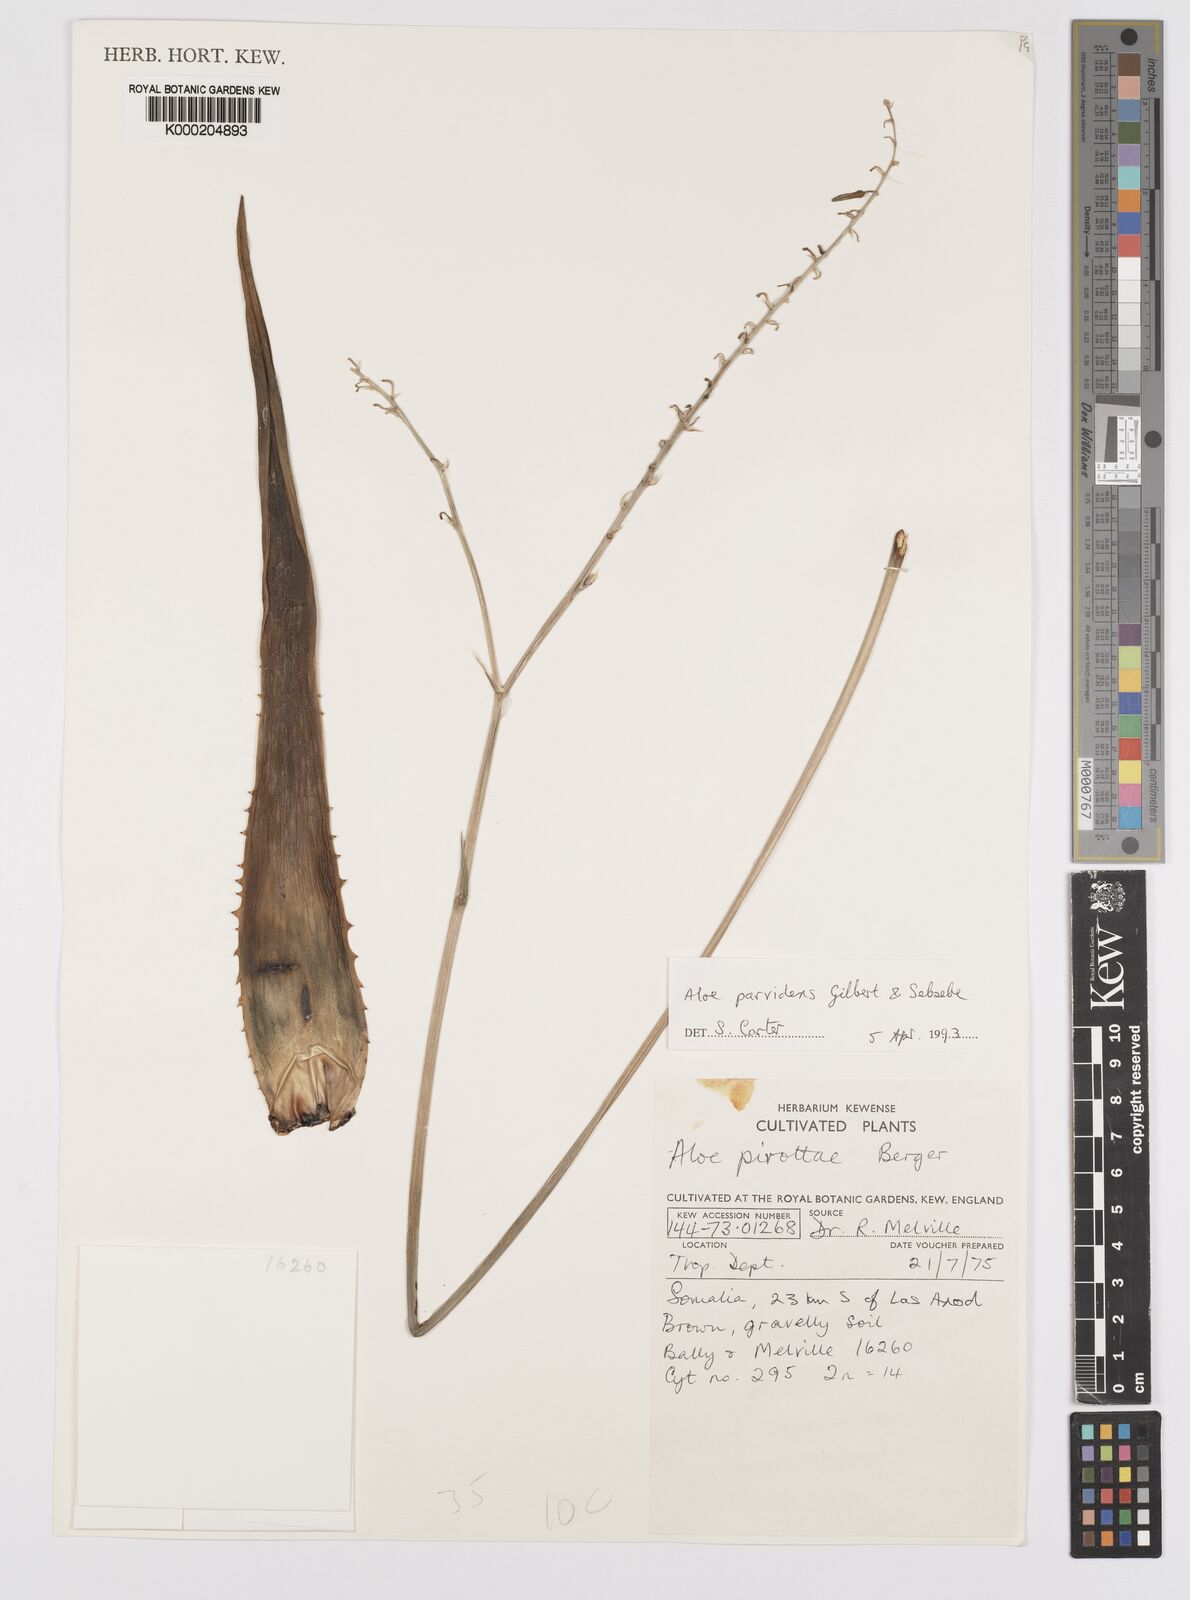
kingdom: Plantae
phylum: Tracheophyta
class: Liliopsida
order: Asparagales
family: Asphodelaceae
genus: Aloe
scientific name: Aloe parvidens
